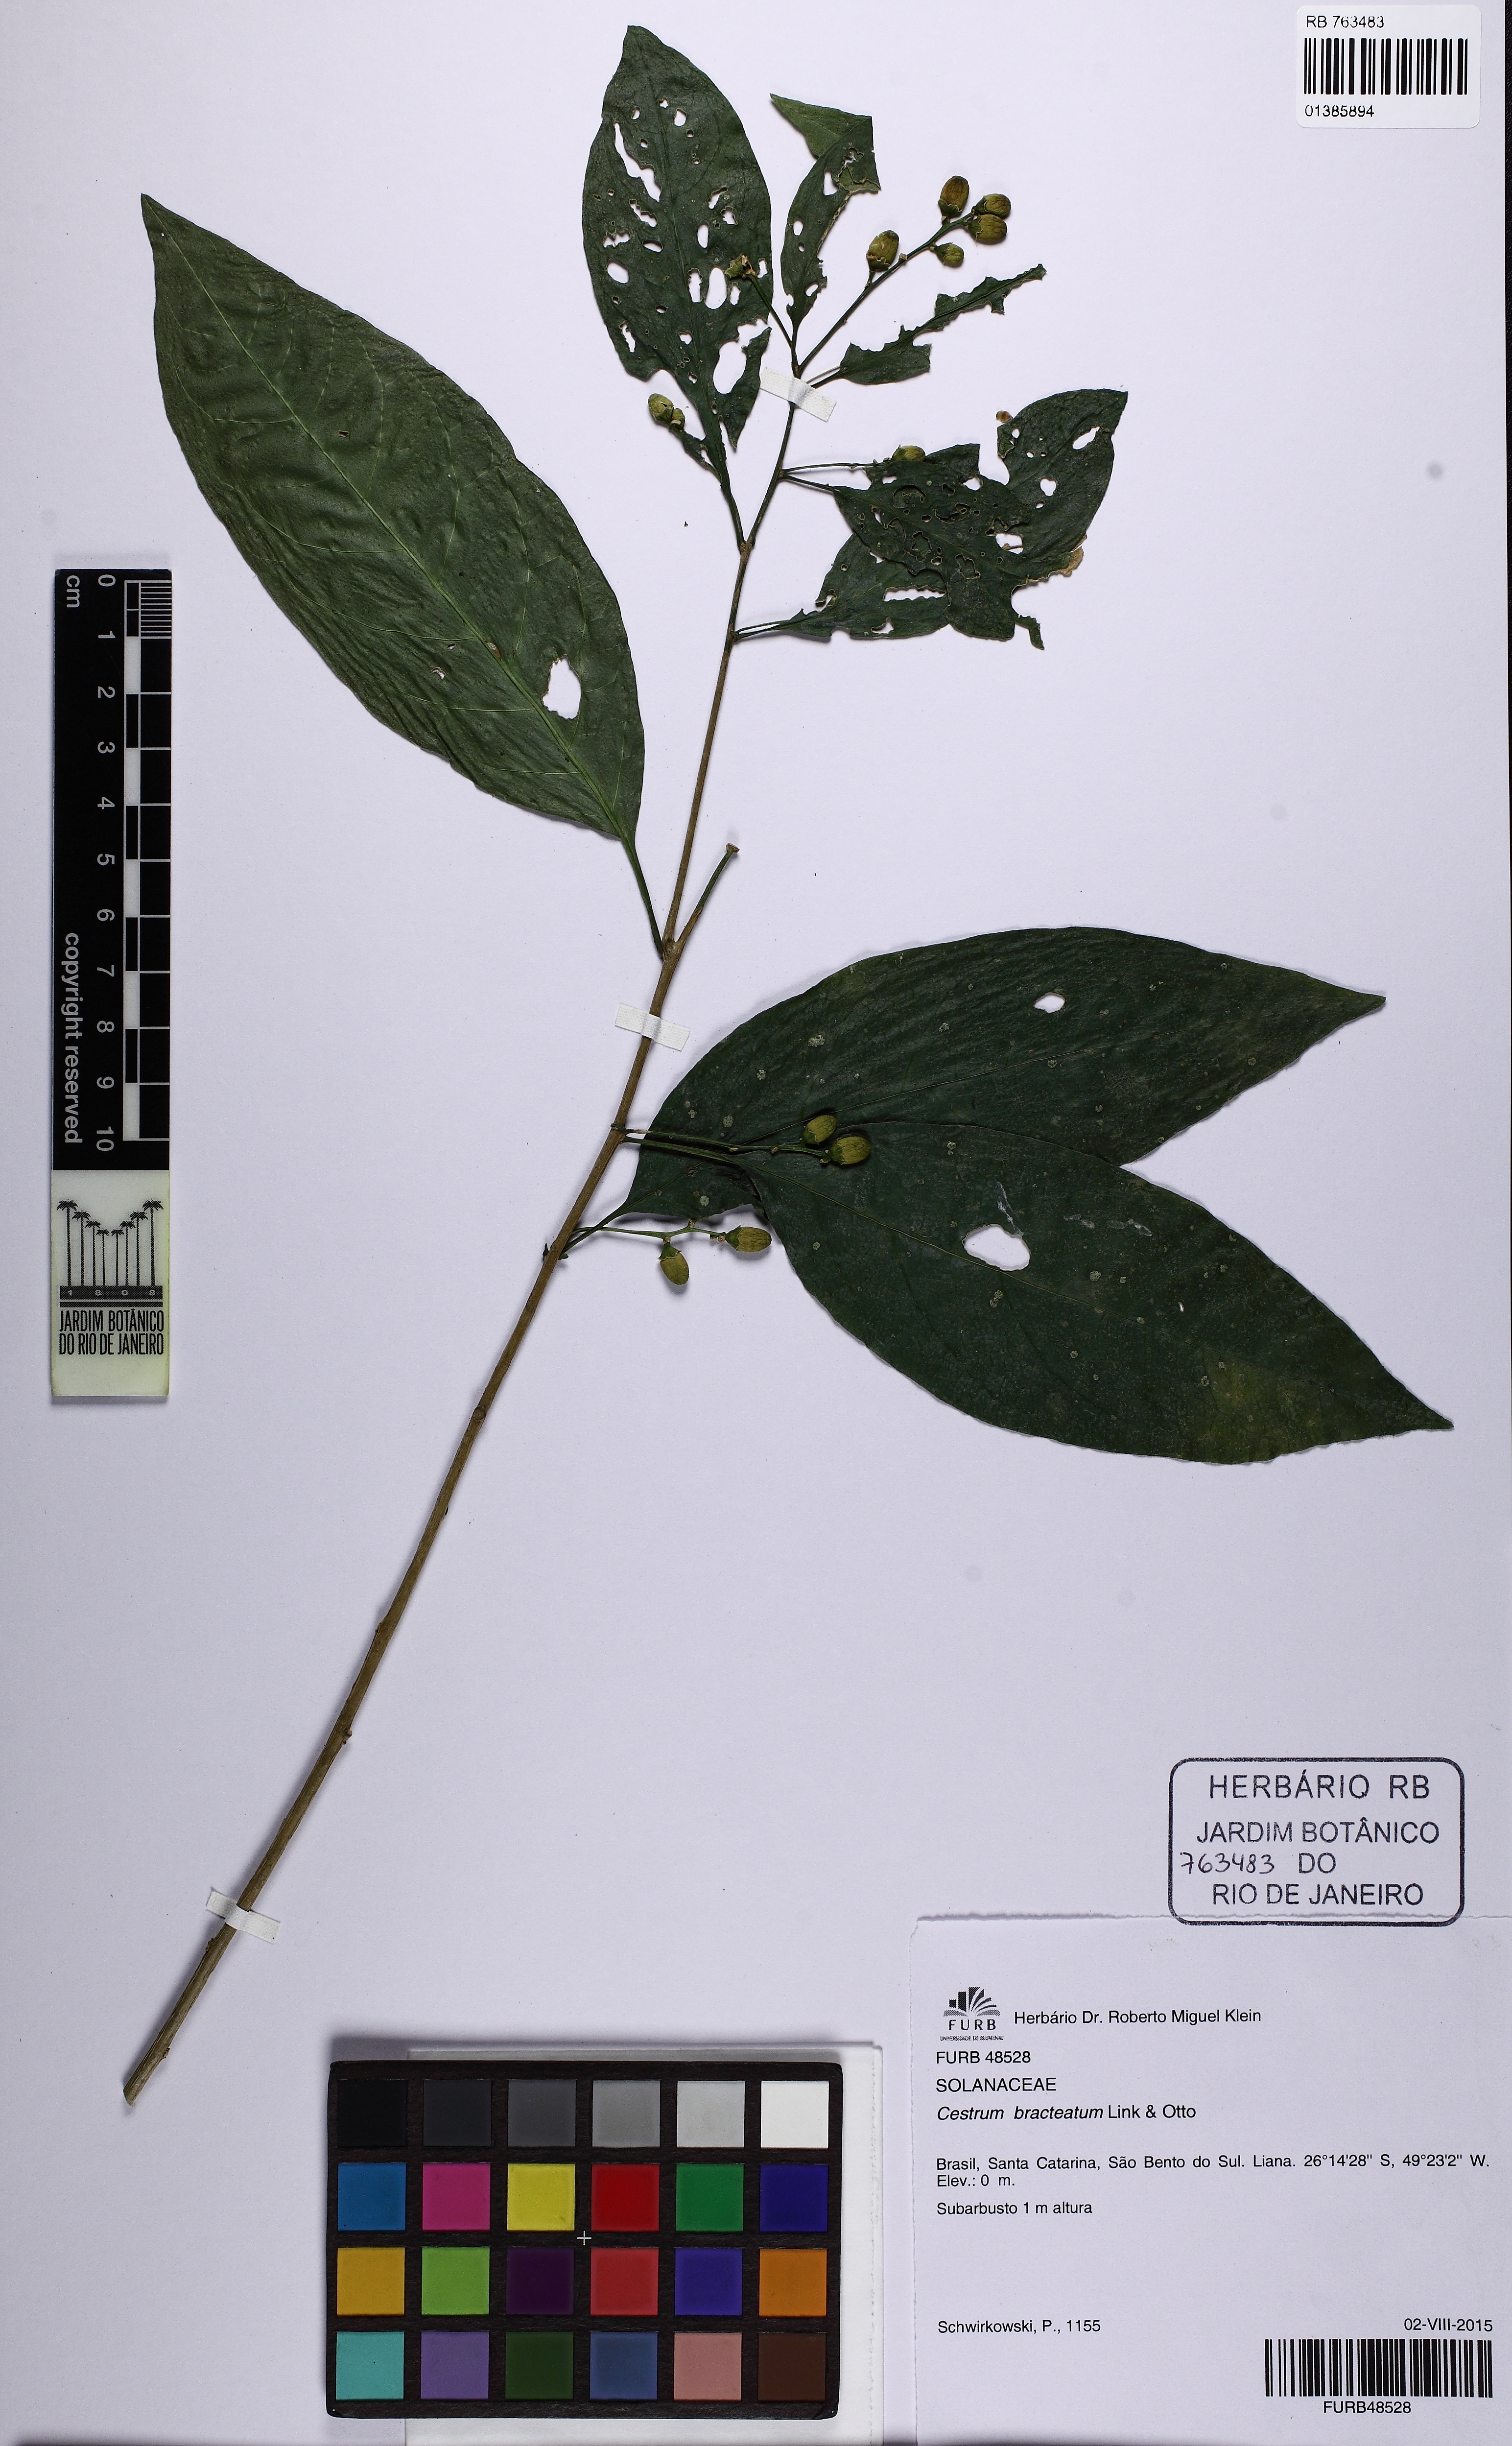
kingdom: Plantae
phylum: Tracheophyta
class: Magnoliopsida
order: Solanales
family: Solanaceae
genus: Cestrum
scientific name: Cestrum bracteatum
